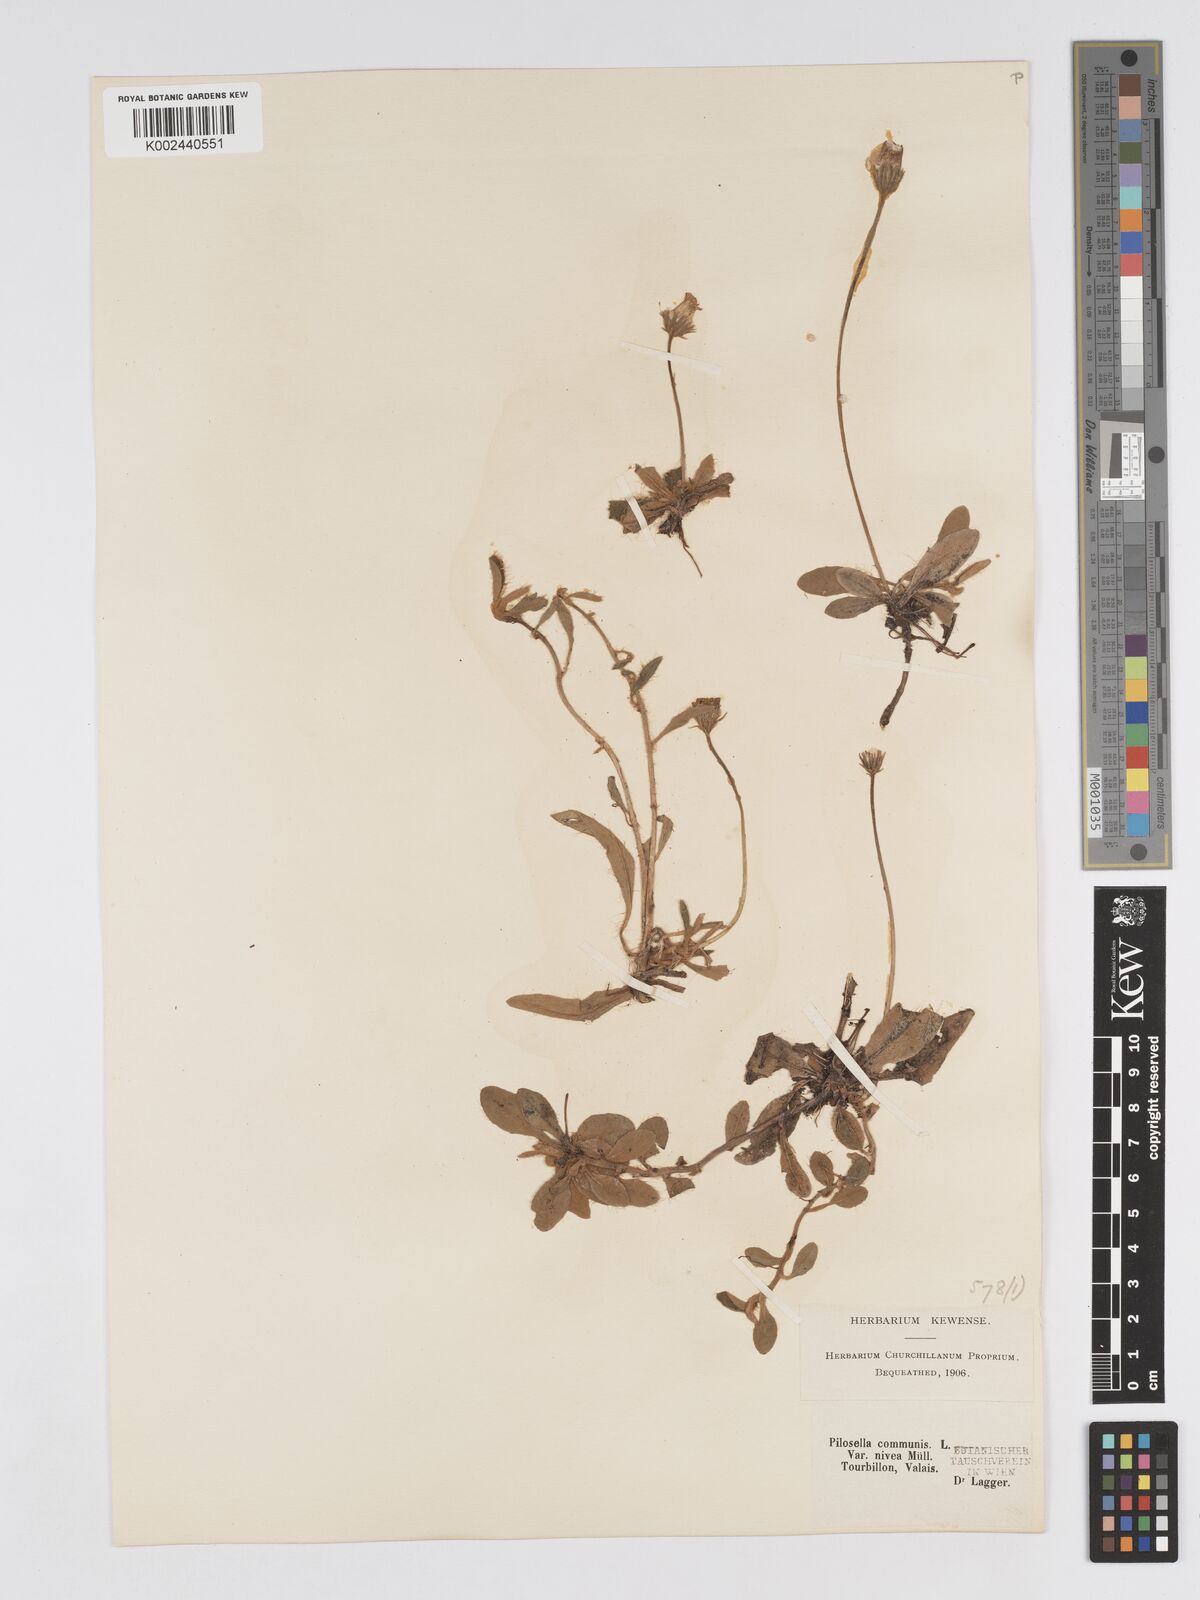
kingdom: Plantae
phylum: Tracheophyta
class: Magnoliopsida
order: Asterales
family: Asteraceae
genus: Pilosella
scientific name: Pilosella tardans
